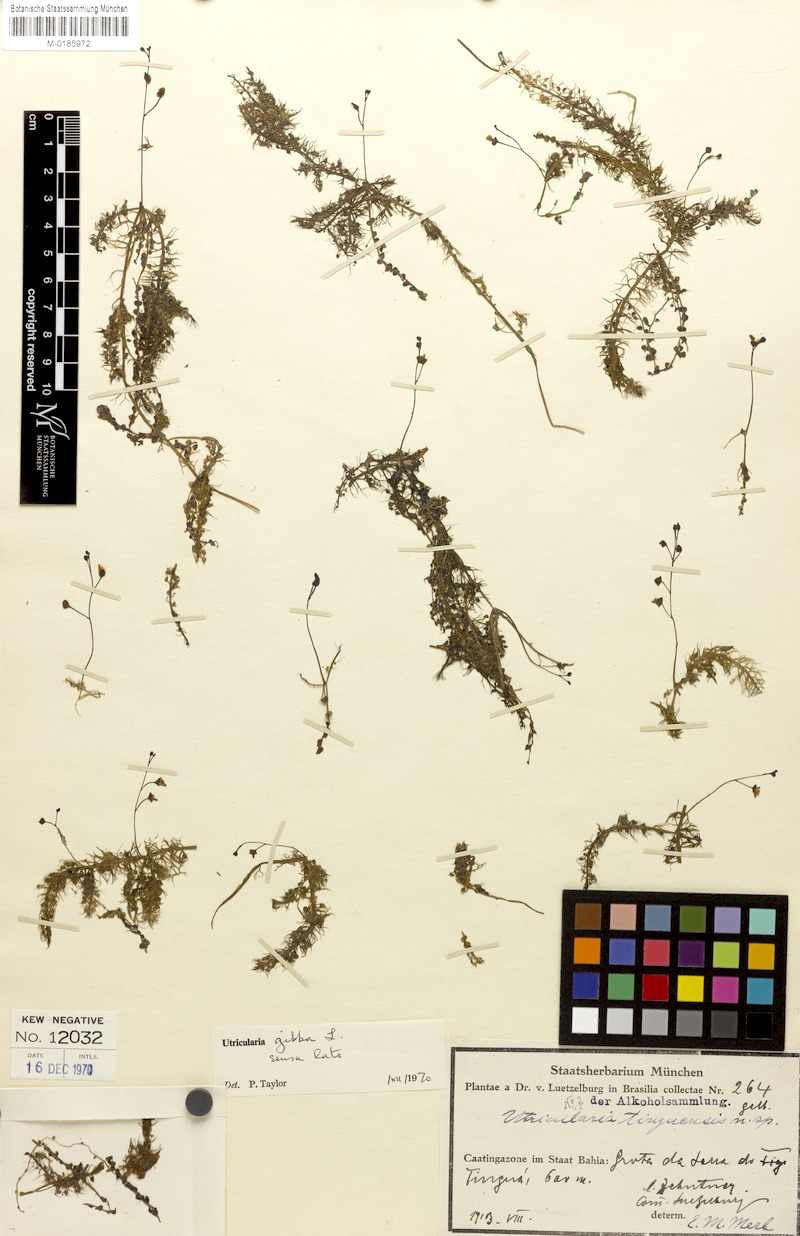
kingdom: Plantae
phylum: Tracheophyta
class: Magnoliopsida
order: Lamiales
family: Lentibulariaceae
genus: Utricularia
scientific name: Utricularia gibba
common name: Humped bladderwort
